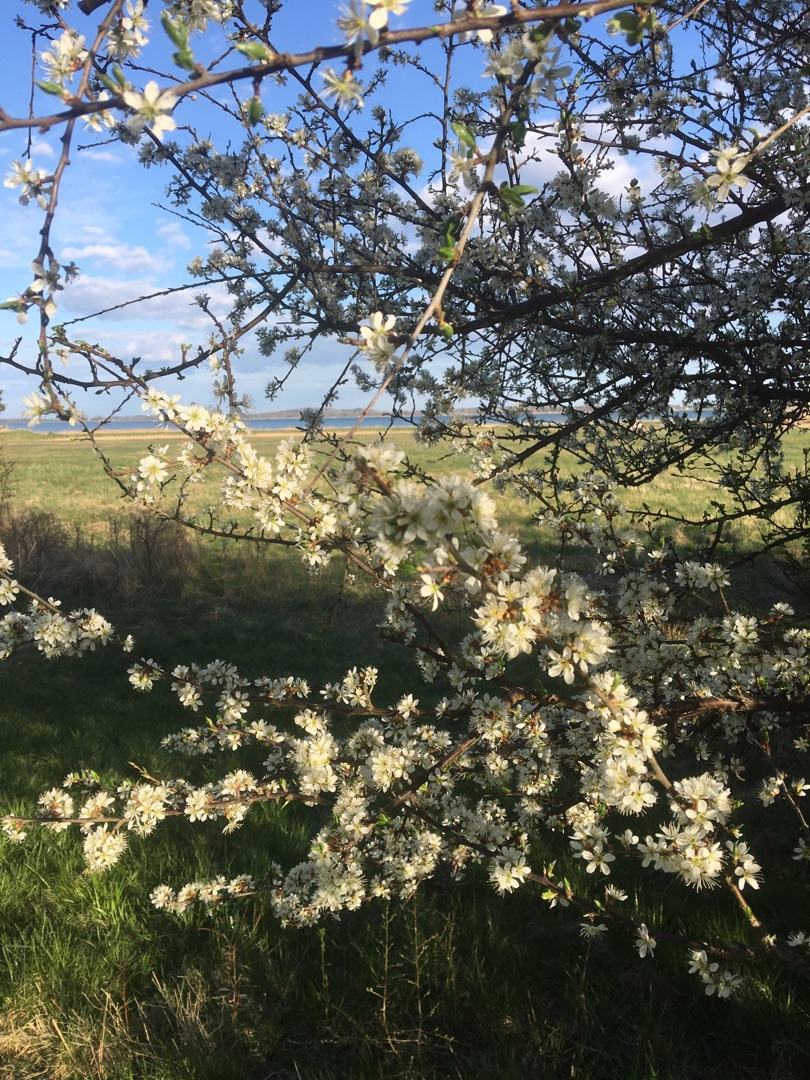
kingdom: Plantae
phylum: Tracheophyta
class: Magnoliopsida
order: Rosales
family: Rosaceae
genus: Prunus
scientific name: Prunus cerasifera
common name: Mirabel
